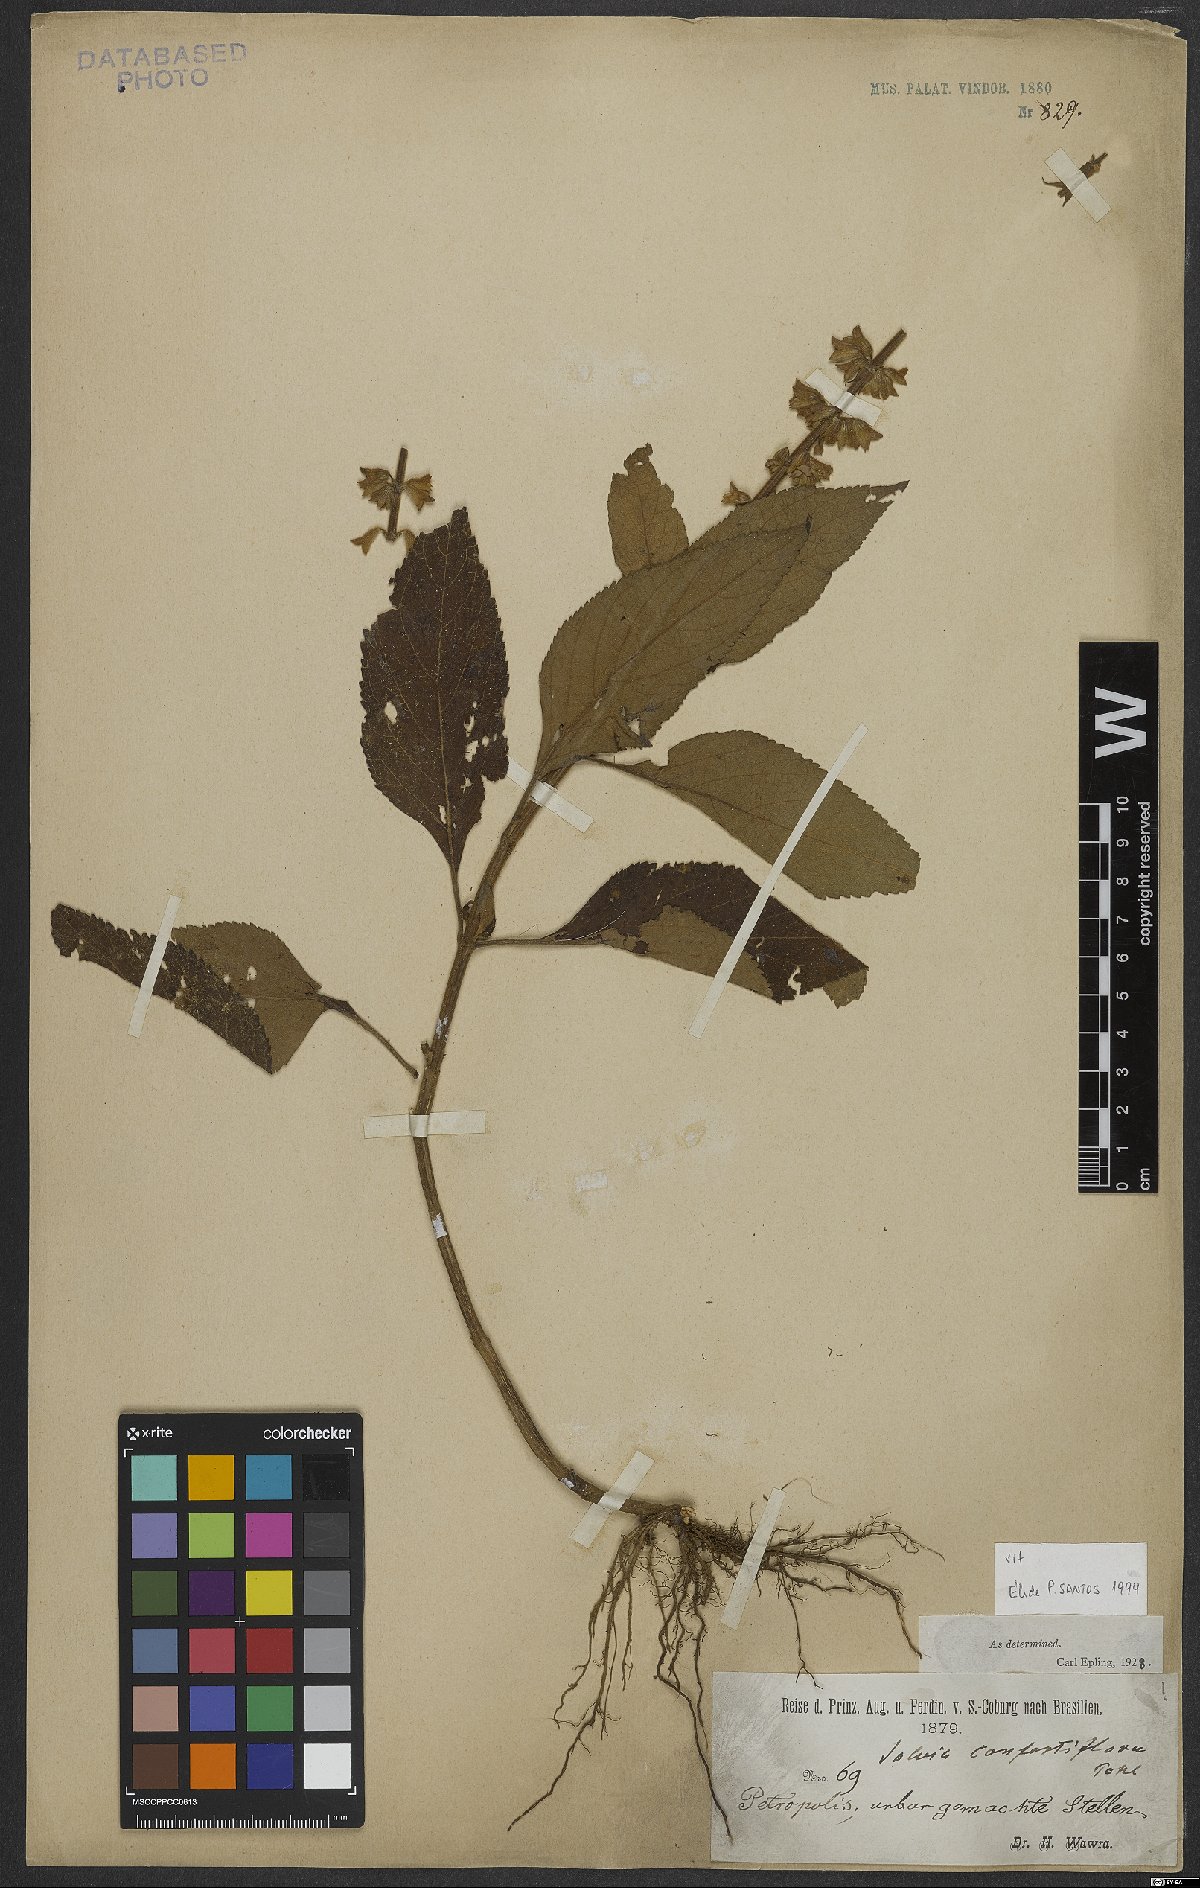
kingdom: Plantae
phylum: Tracheophyta
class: Magnoliopsida
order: Lamiales
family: Lamiaceae
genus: Salvia
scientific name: Salvia confertiflora
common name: Sabra-spike sage
